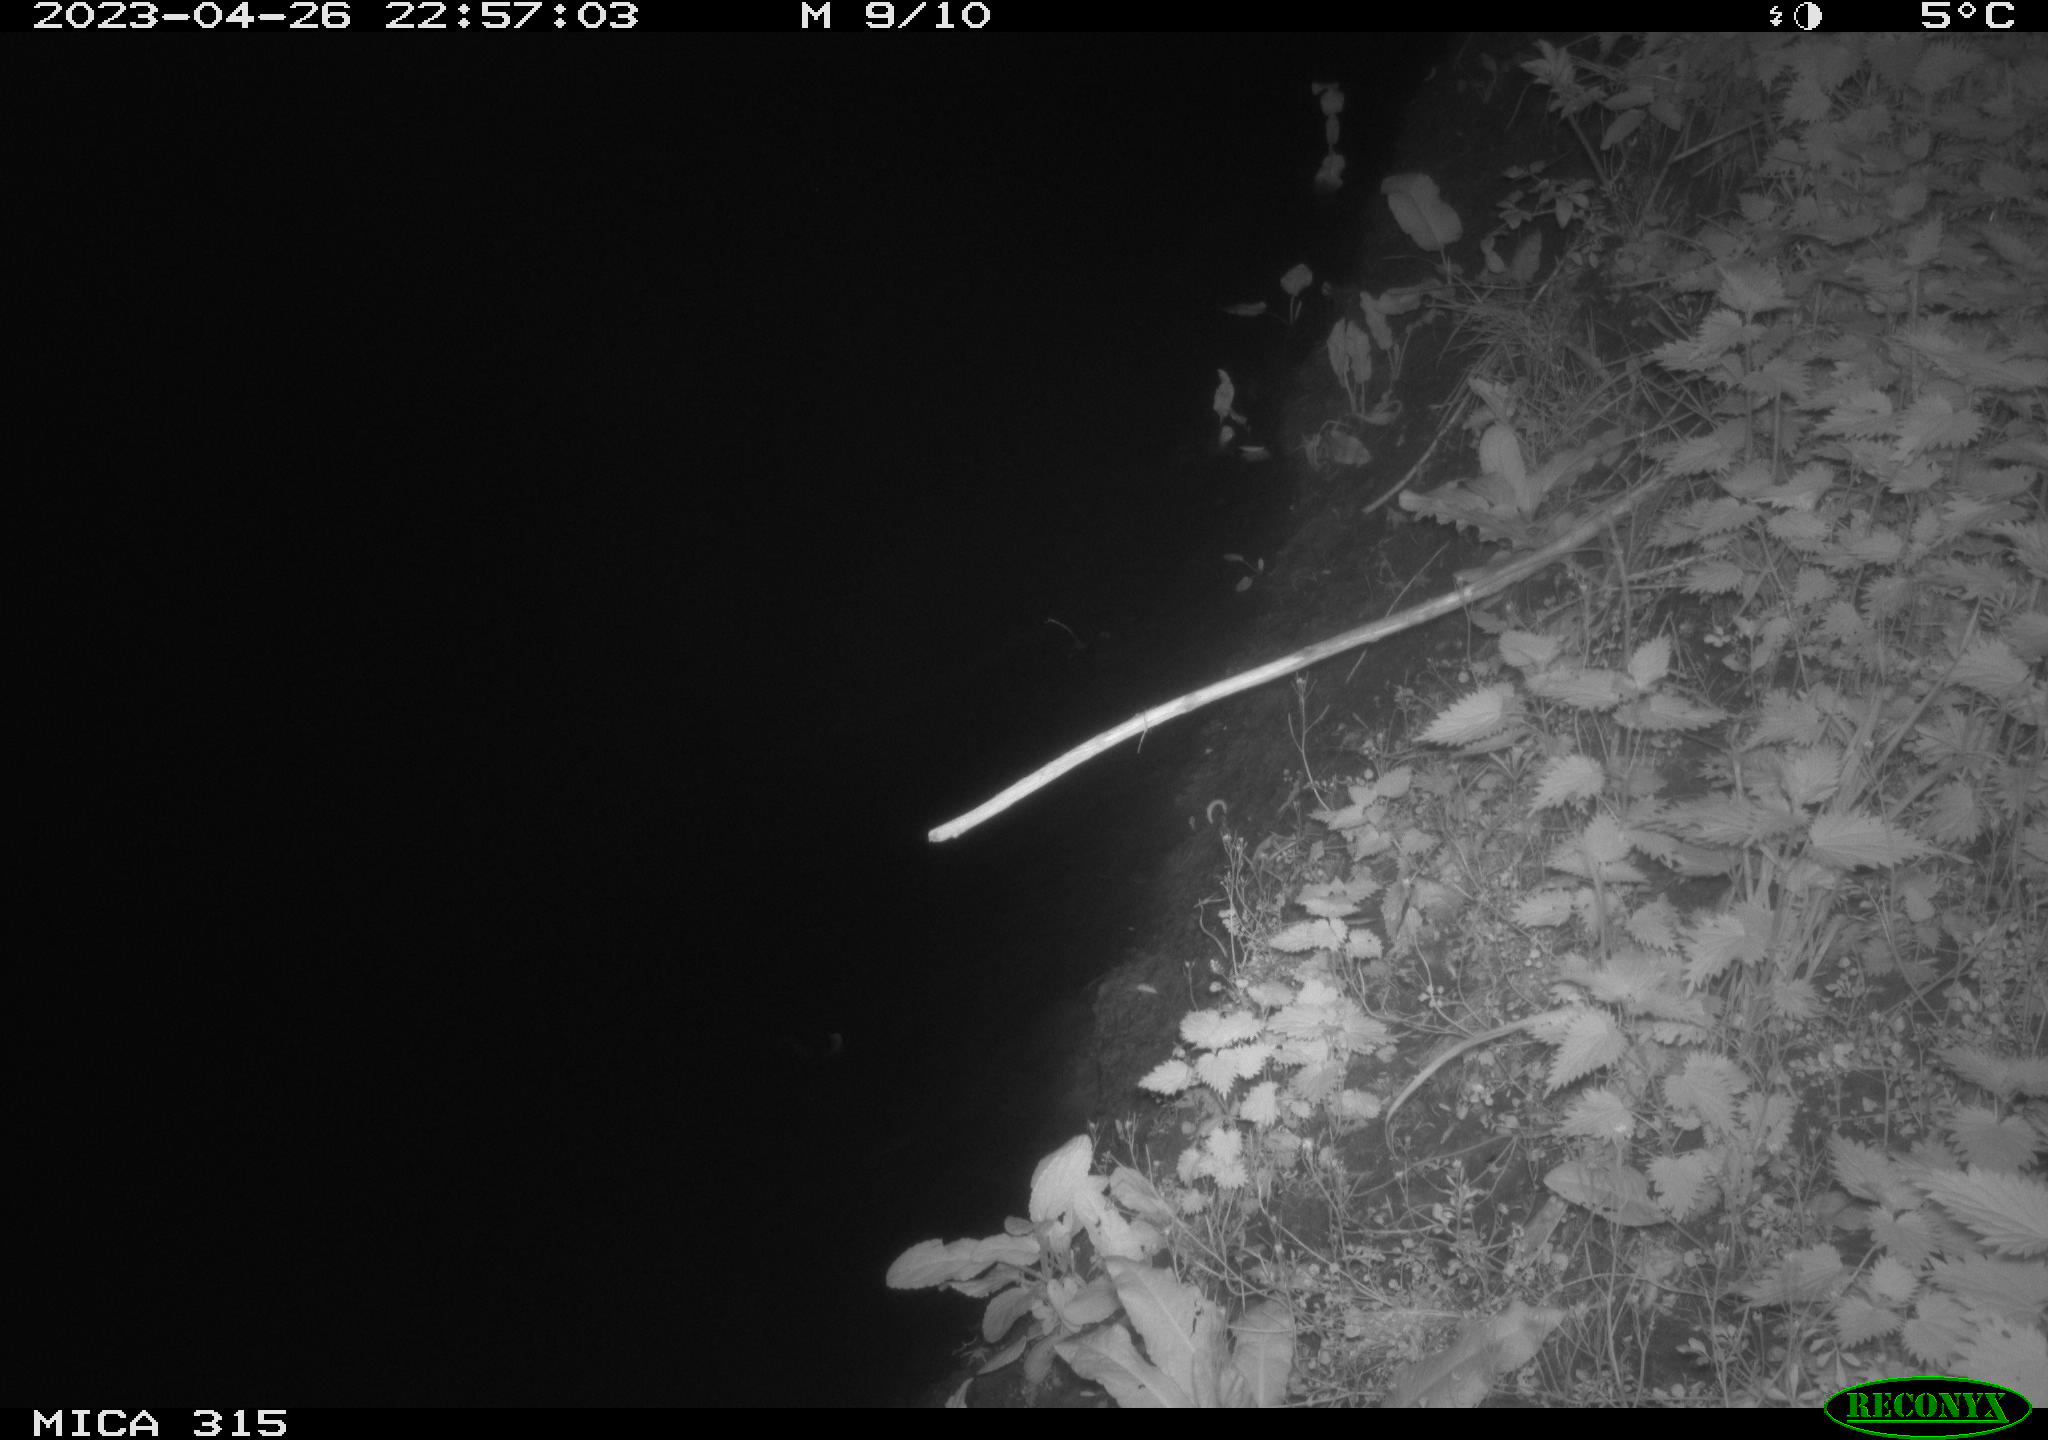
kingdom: Animalia
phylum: Chordata
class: Aves
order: Anseriformes
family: Anatidae
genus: Anas
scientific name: Anas
